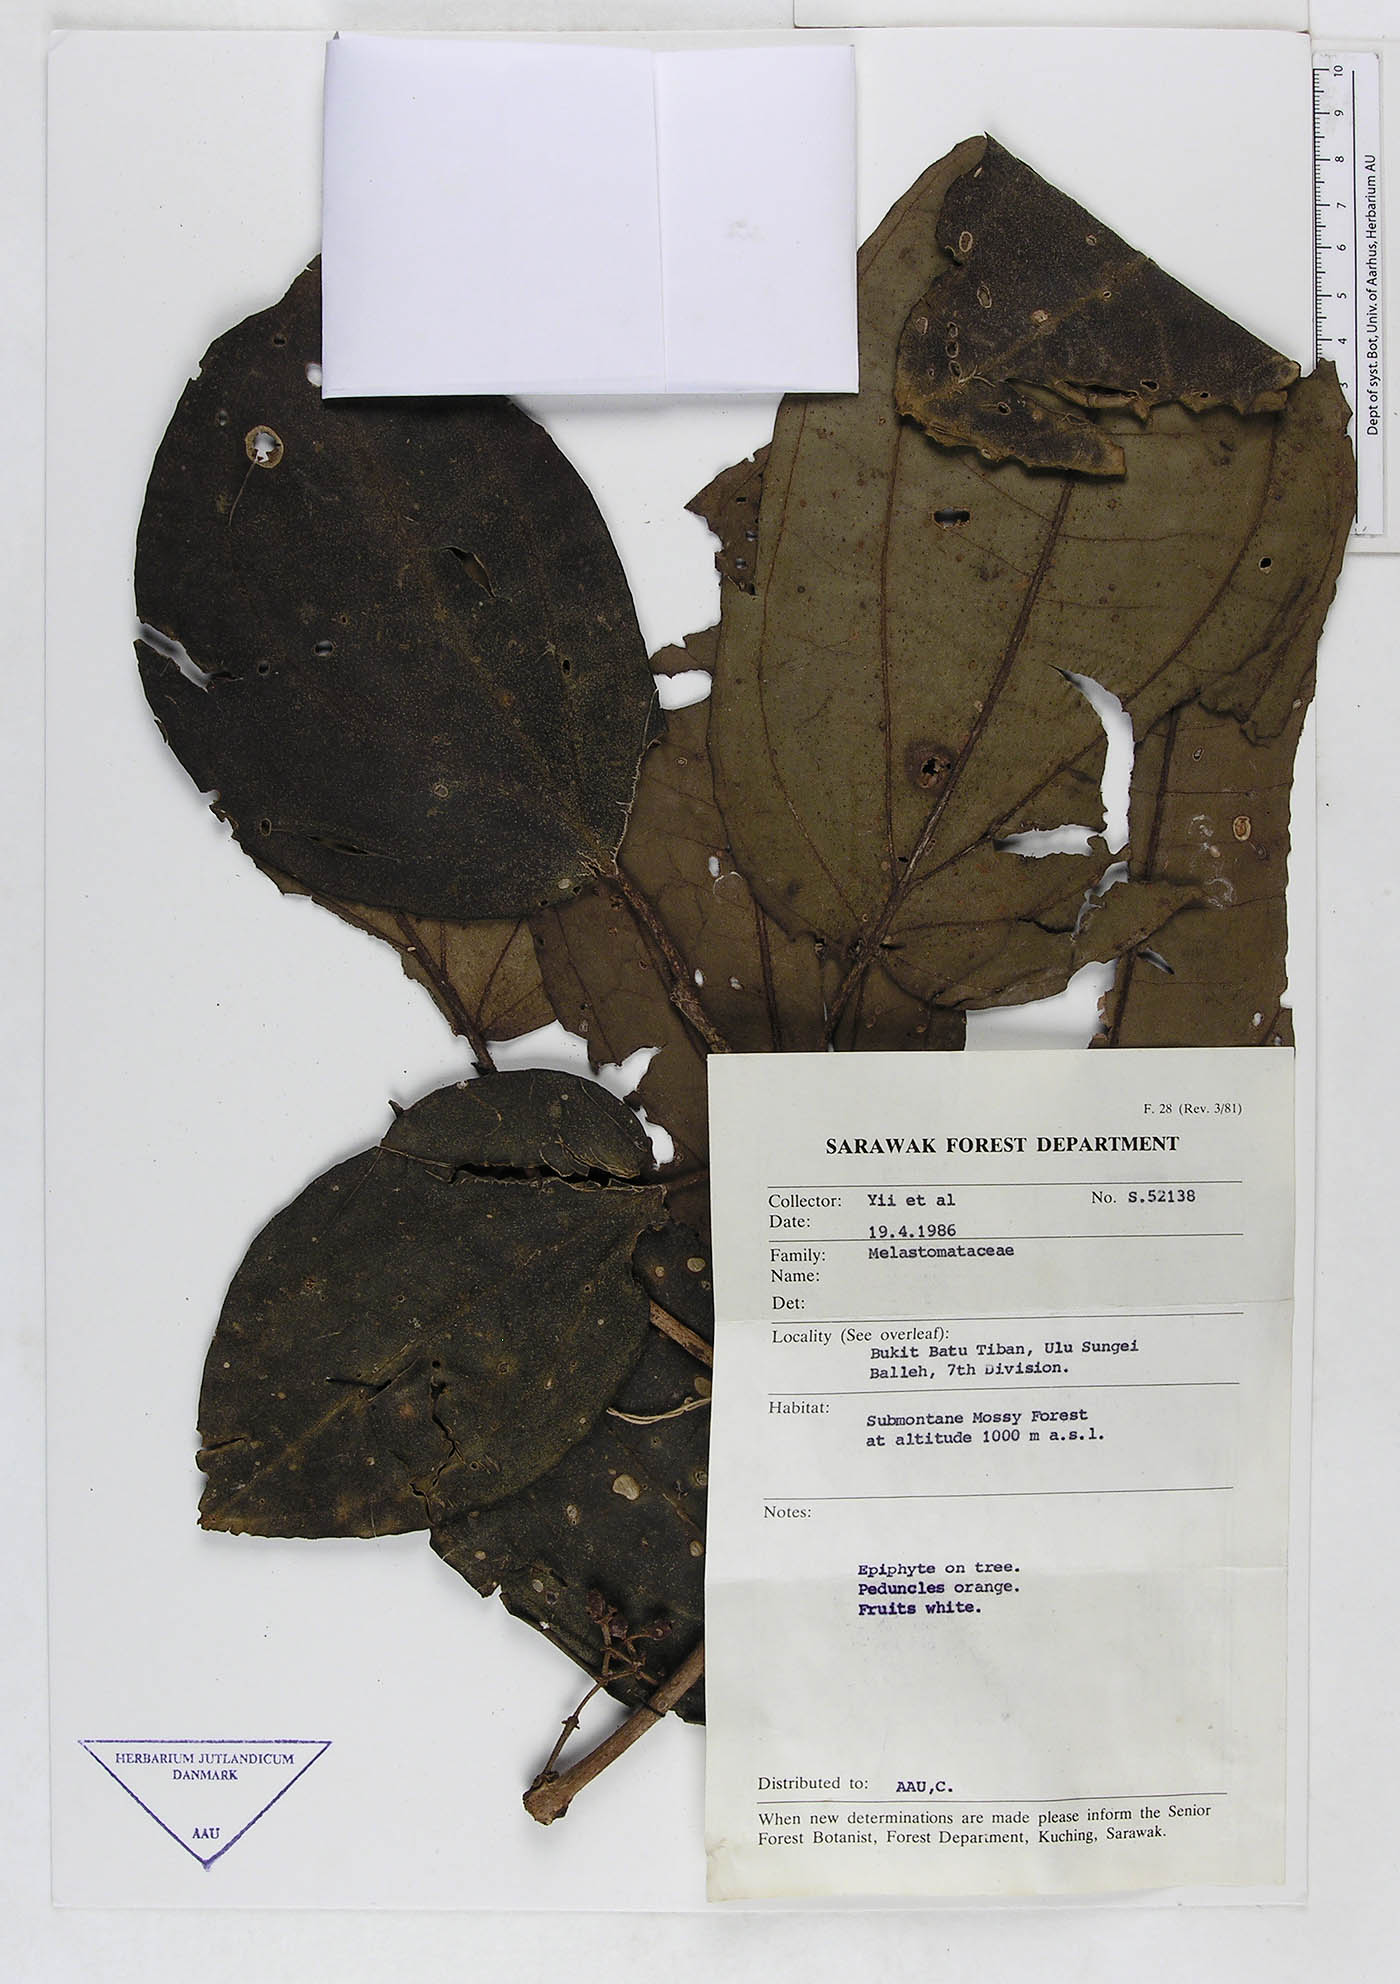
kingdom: Plantae
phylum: Tracheophyta
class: Magnoliopsida
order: Myrtales
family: Melastomataceae
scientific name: Melastomataceae
